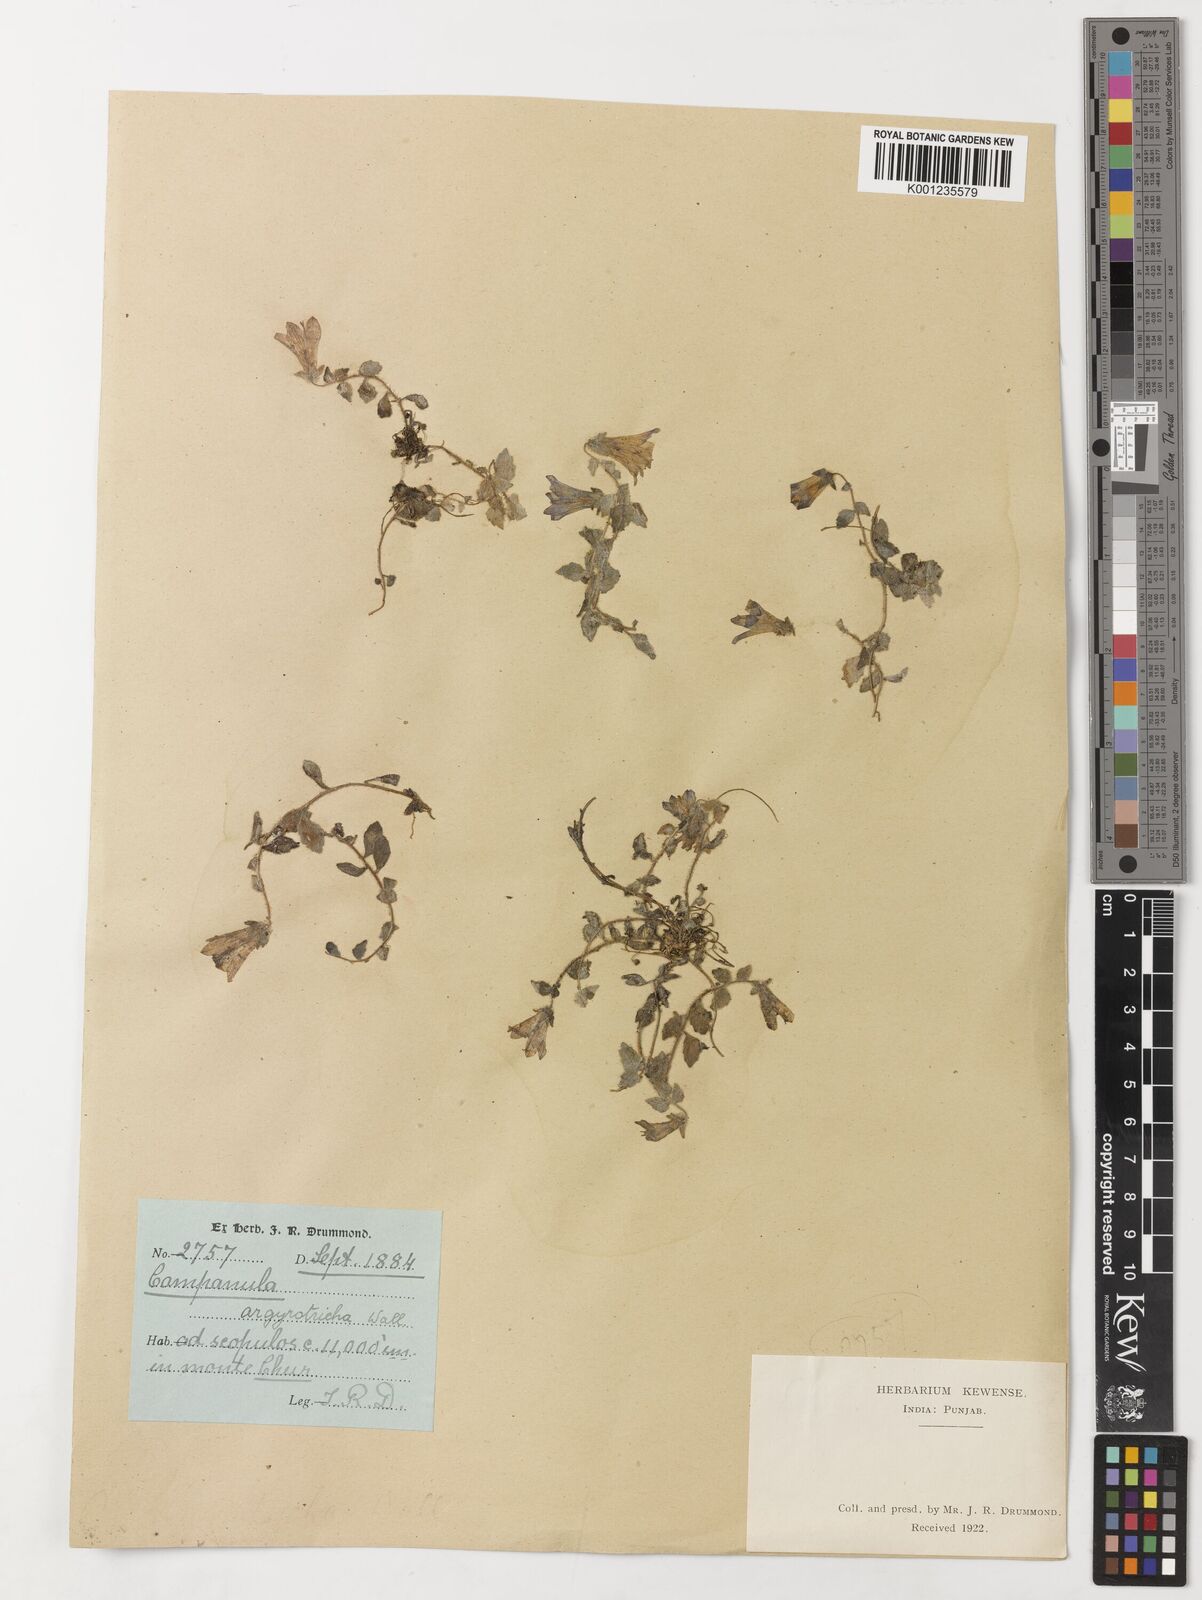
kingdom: Plantae
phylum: Tracheophyta
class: Magnoliopsida
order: Asterales
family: Campanulaceae
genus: Campanula
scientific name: Campanula argyrotricha
